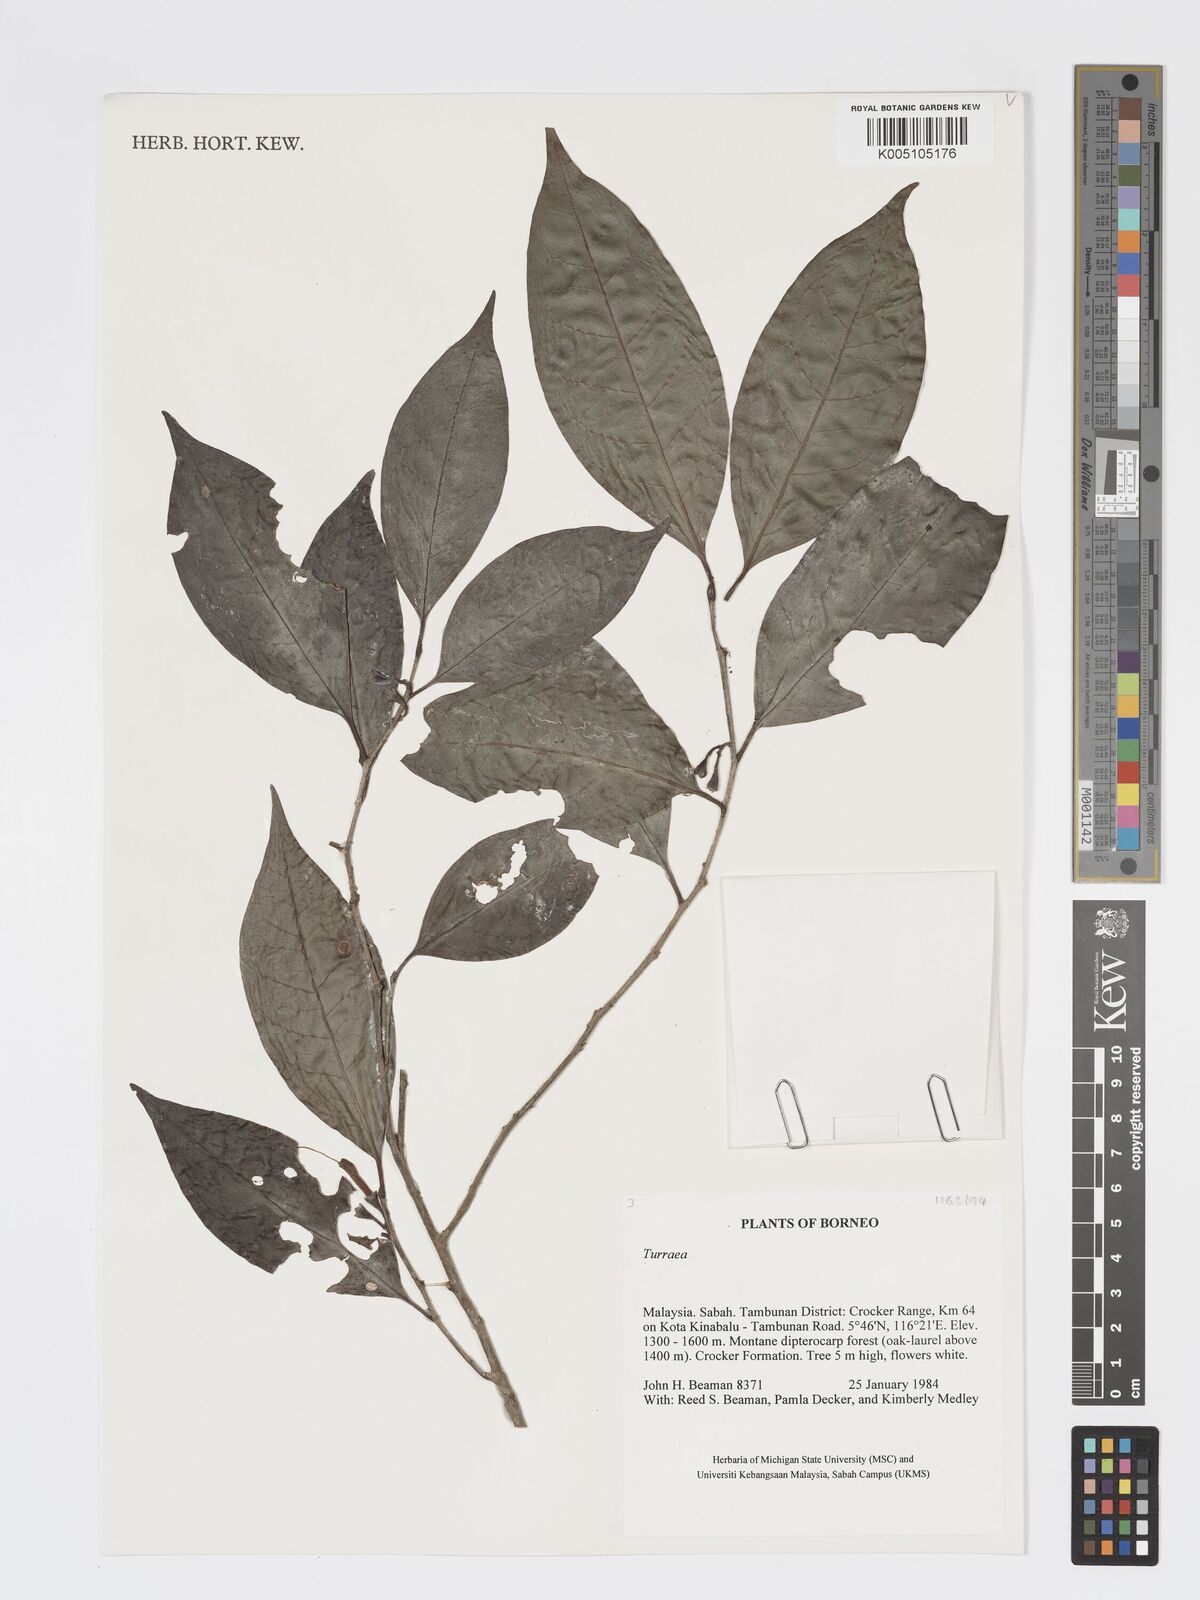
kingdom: Plantae
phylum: Tracheophyta
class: Magnoliopsida
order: Sapindales
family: Meliaceae
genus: Turraea
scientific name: Turraea
